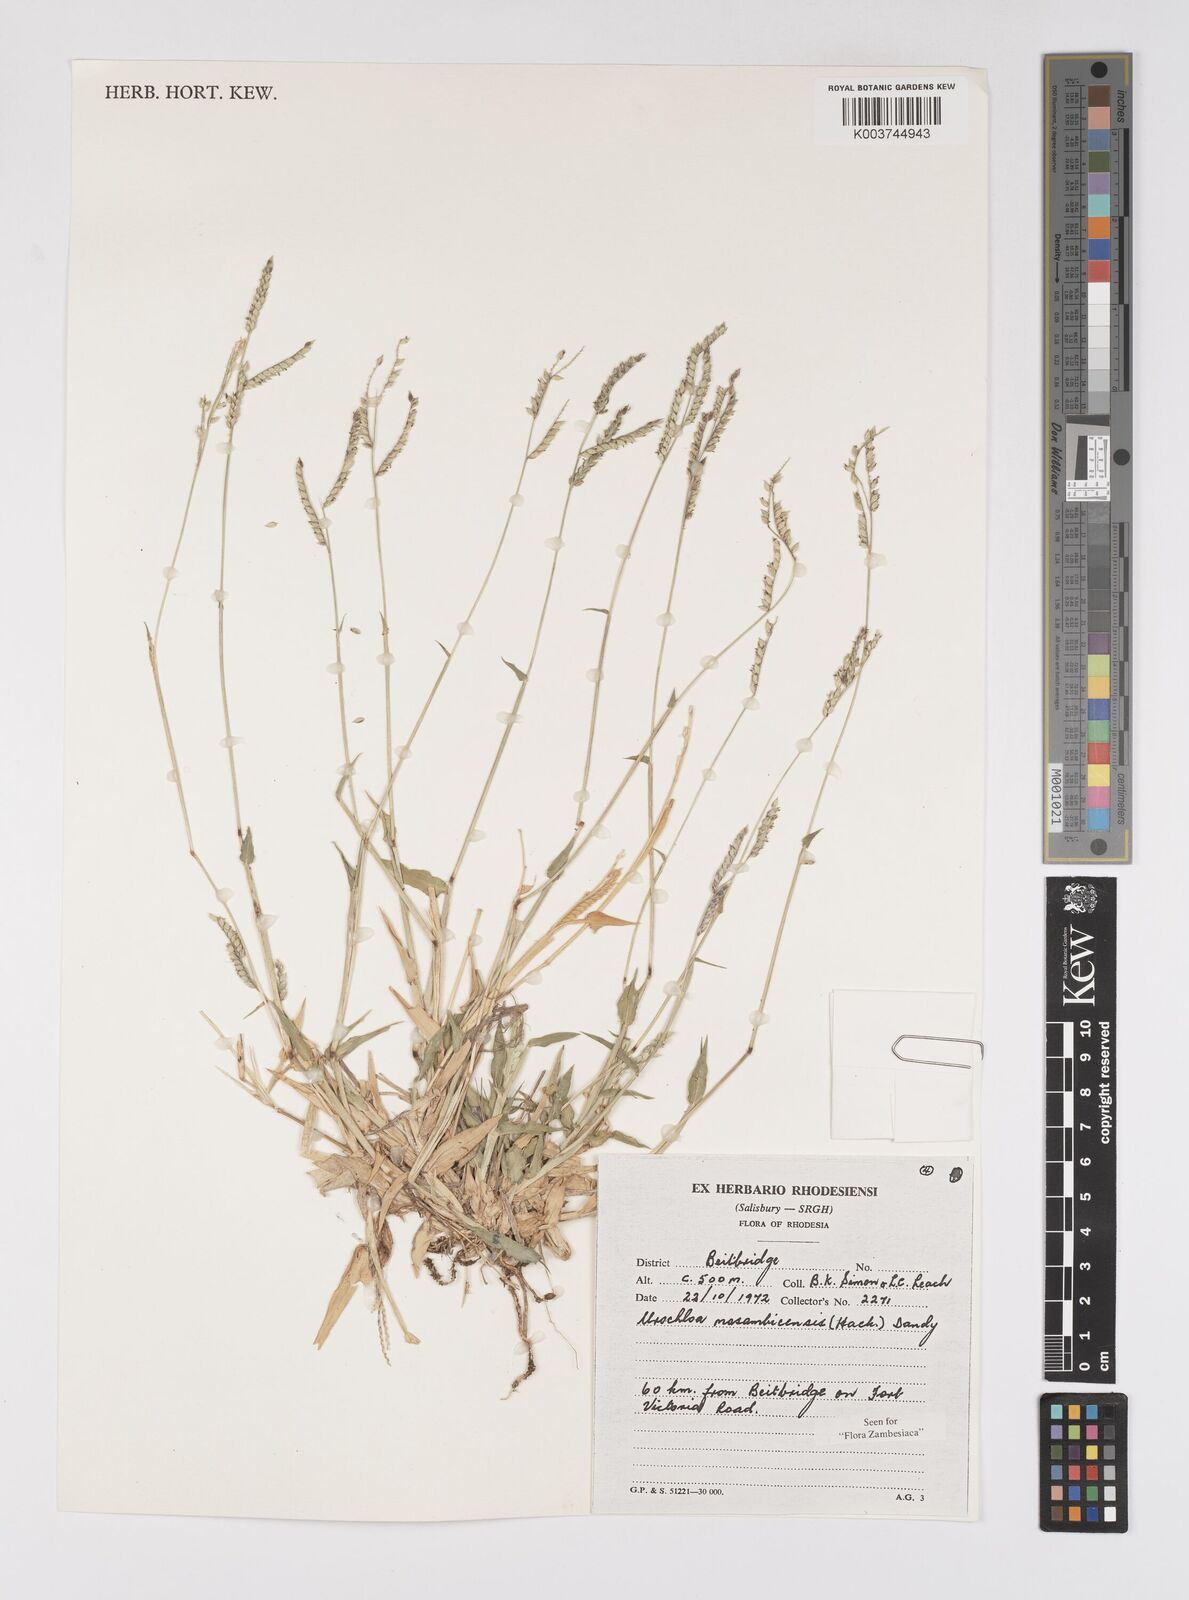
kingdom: Plantae
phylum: Tracheophyta
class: Liliopsida
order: Poales
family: Poaceae
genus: Urochloa
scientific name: Urochloa trichopus
